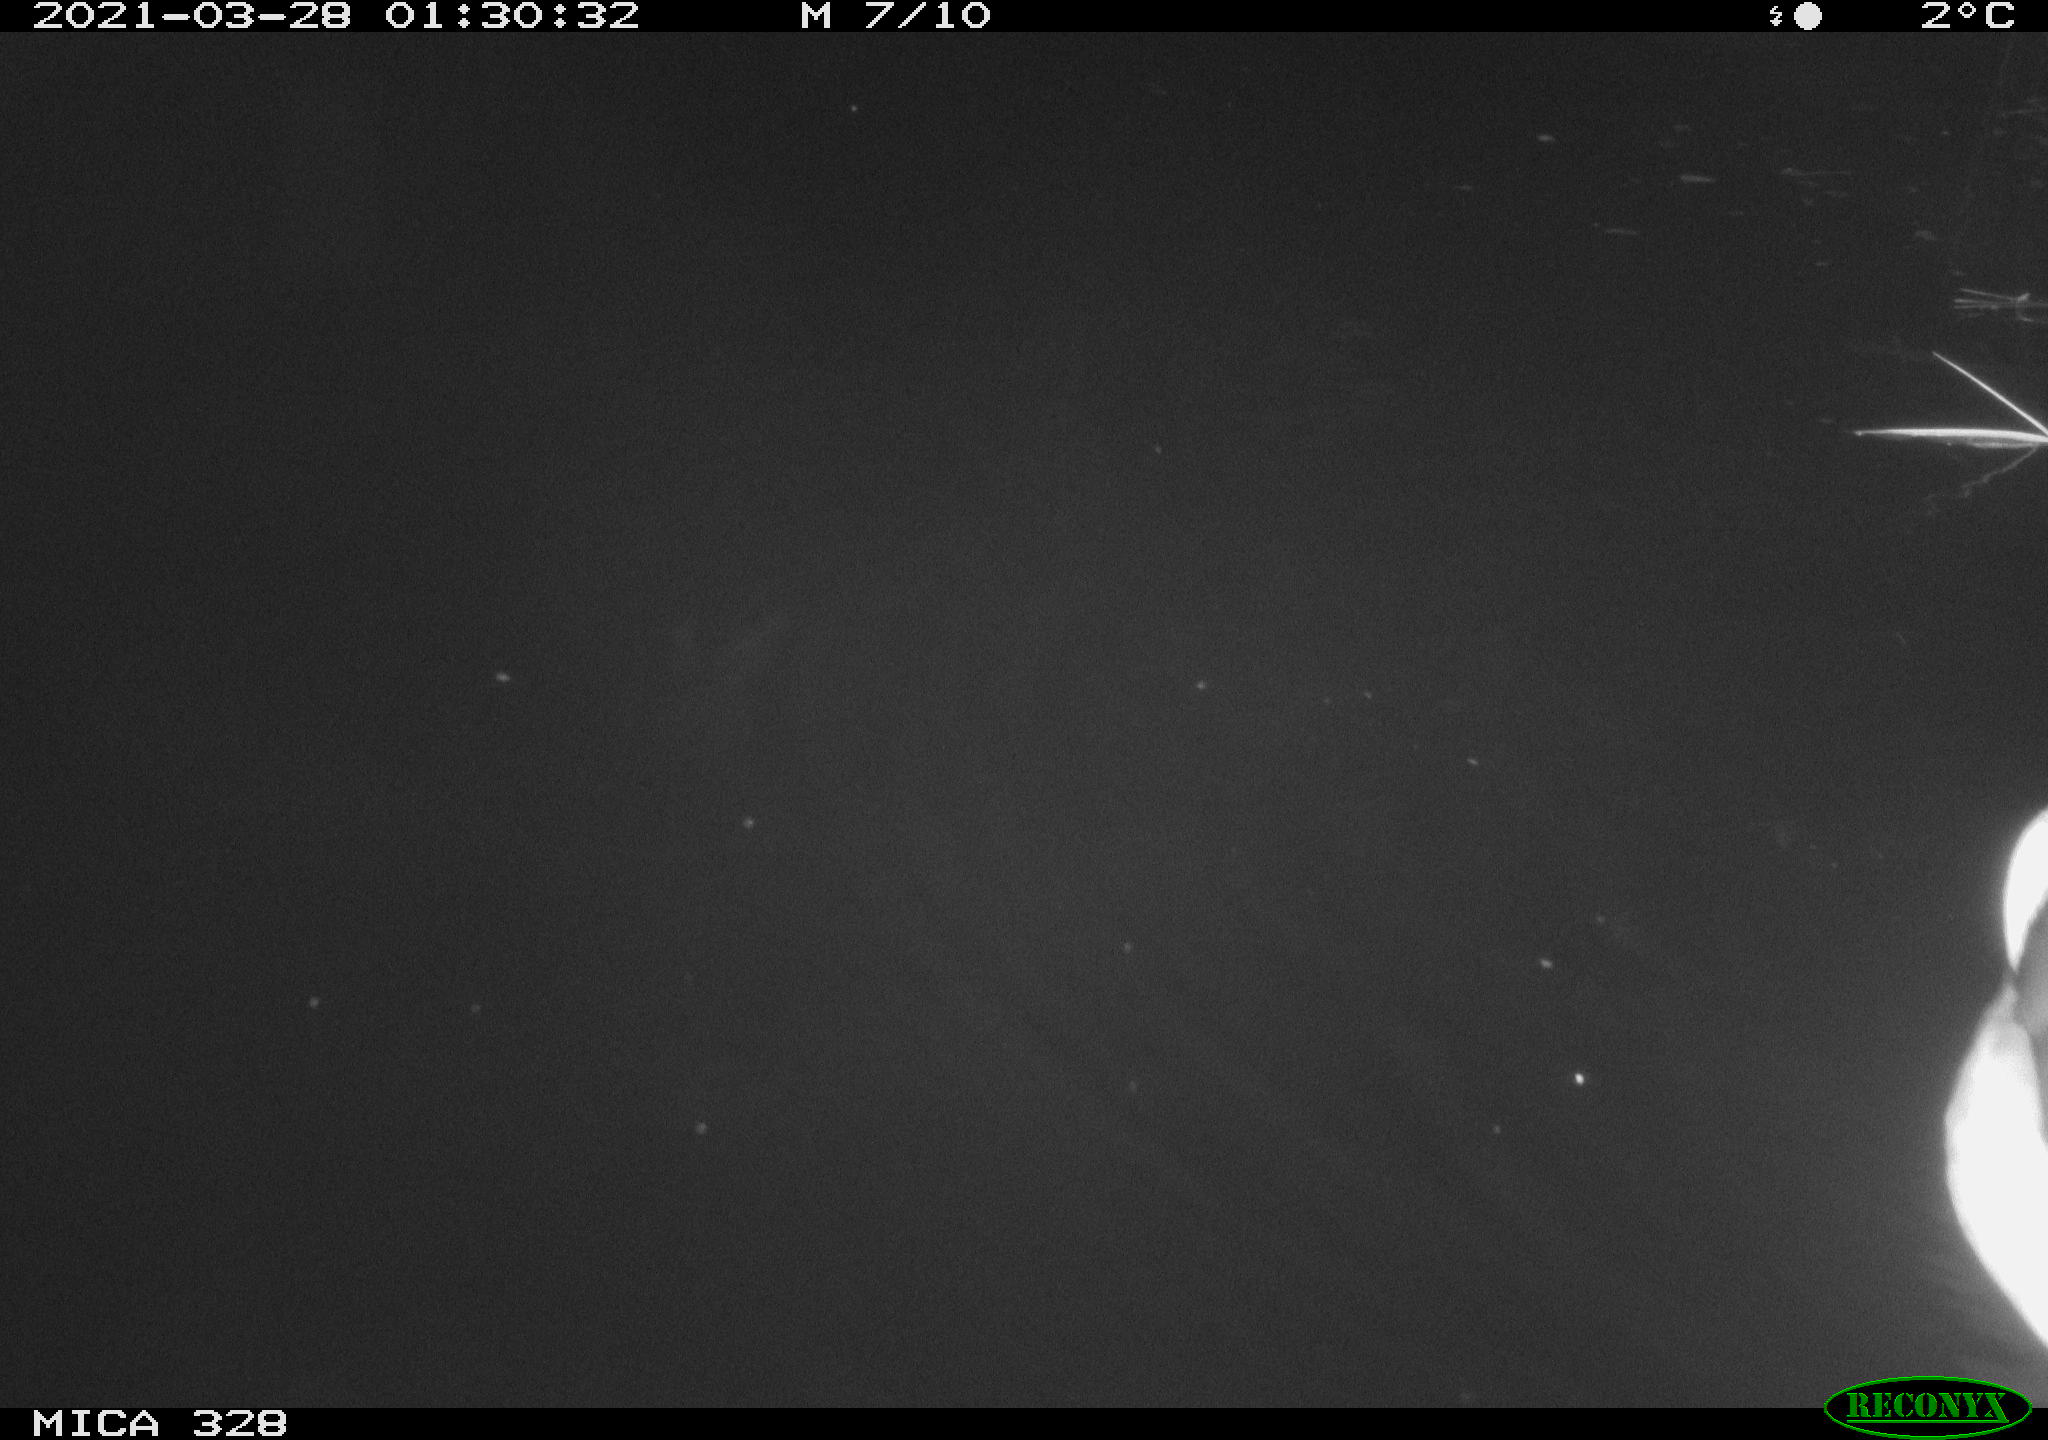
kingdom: Animalia
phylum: Chordata
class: Aves
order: Anseriformes
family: Anatidae
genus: Anas
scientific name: Anas platyrhynchos
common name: Mallard
